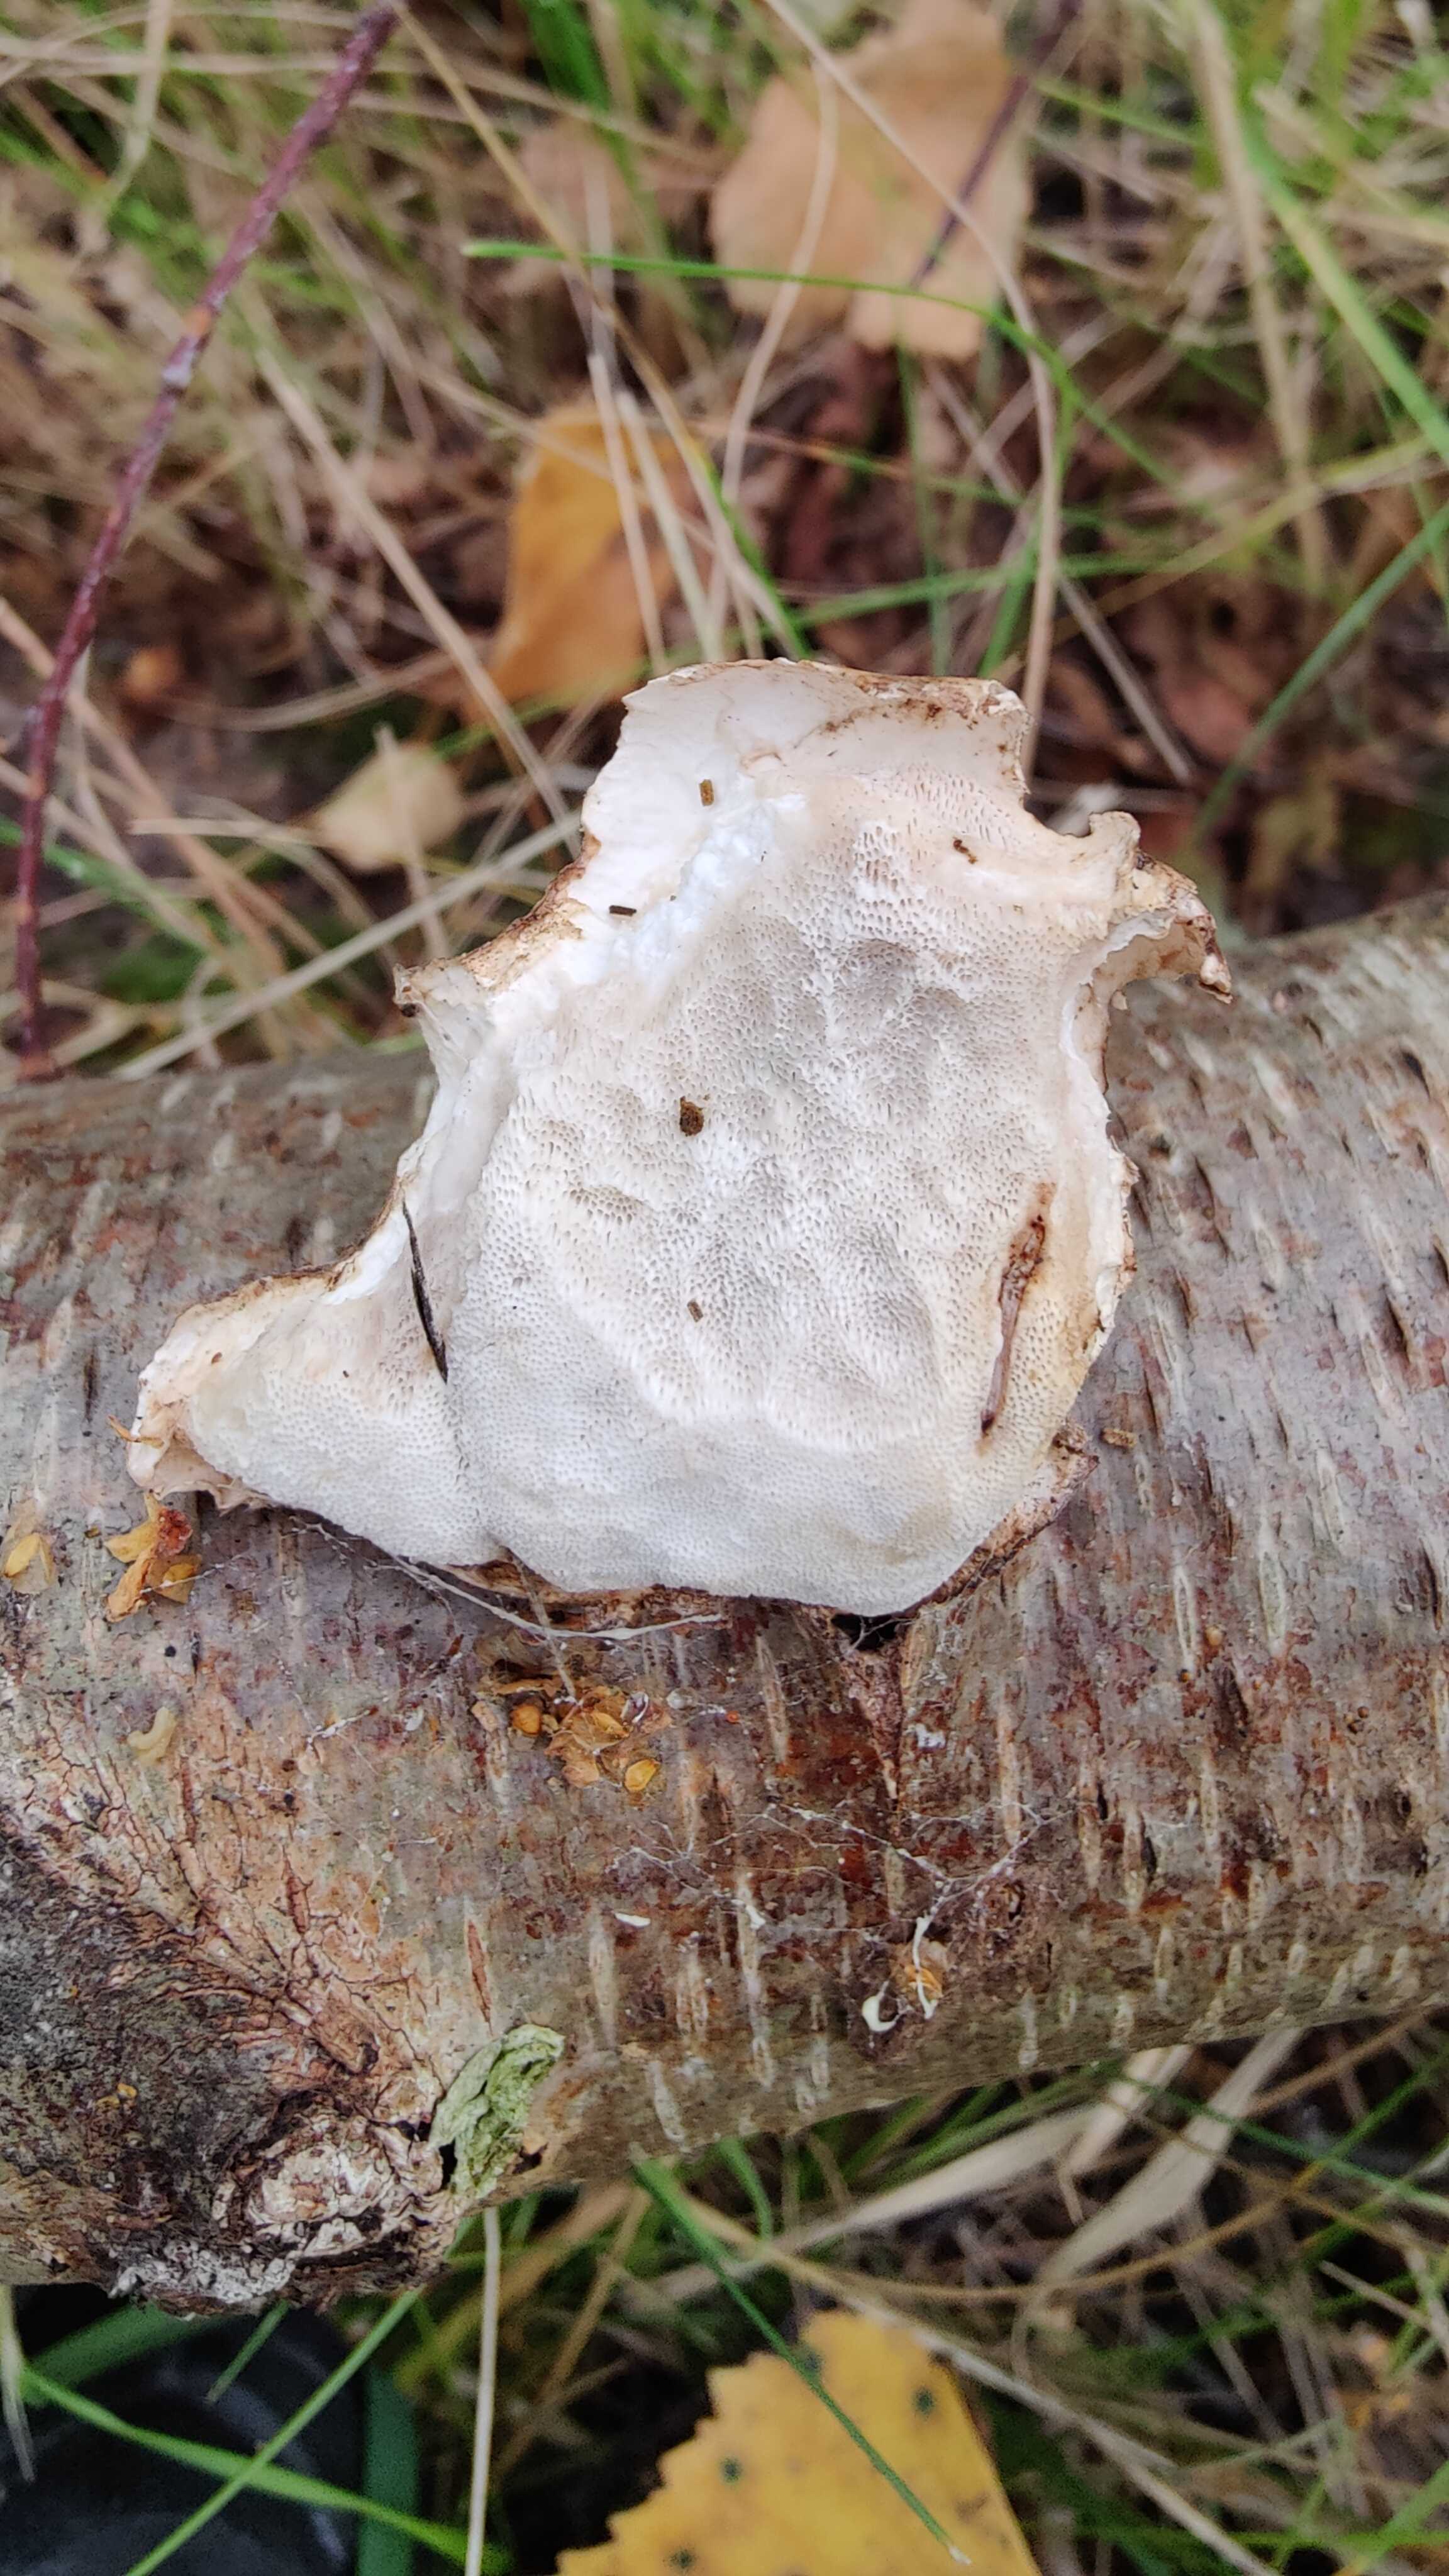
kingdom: Fungi
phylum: Basidiomycota
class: Agaricomycetes
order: Polyporales
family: Fomitopsidaceae
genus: Fomitopsis
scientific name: Fomitopsis betulina
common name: birkeporesvamp
